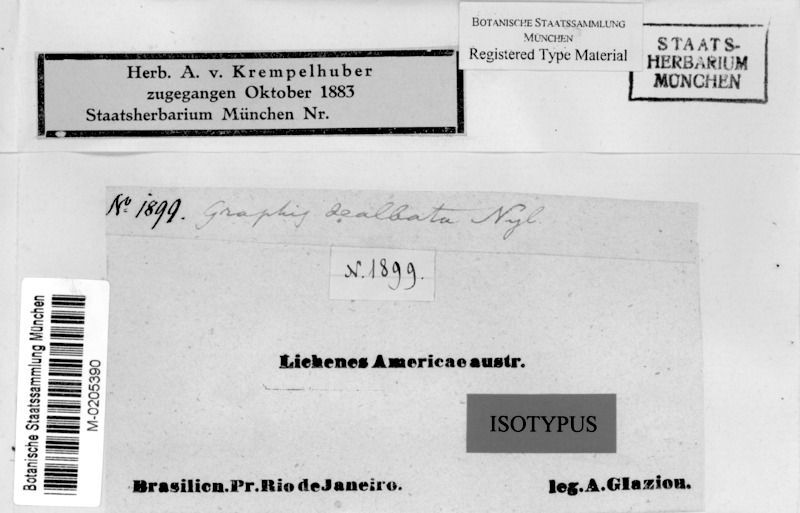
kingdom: Fungi
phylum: Ascomycota
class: Lecanoromycetes
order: Ostropales
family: Graphidaceae
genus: Allographa
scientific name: Allographa dealbata
